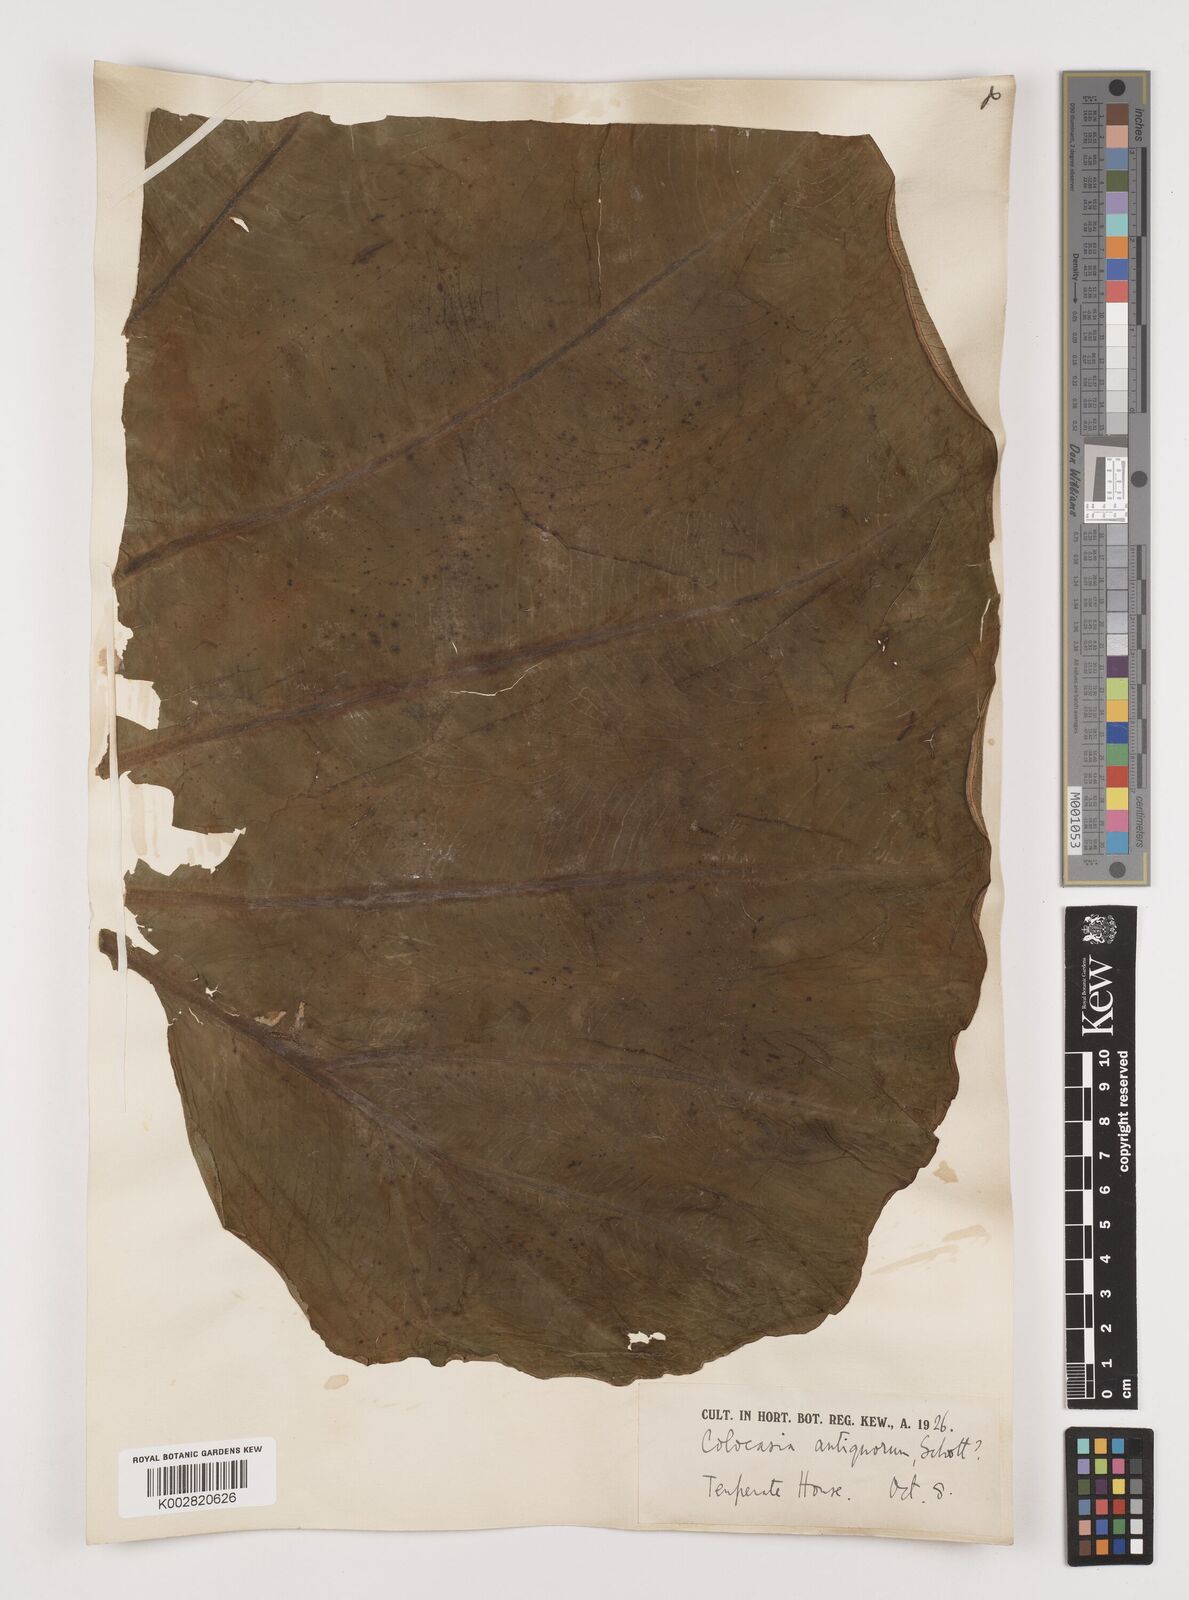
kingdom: Plantae
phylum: Tracheophyta
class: Liliopsida
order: Alismatales
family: Araceae
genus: Leucocasia
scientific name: Leucocasia gigantea
